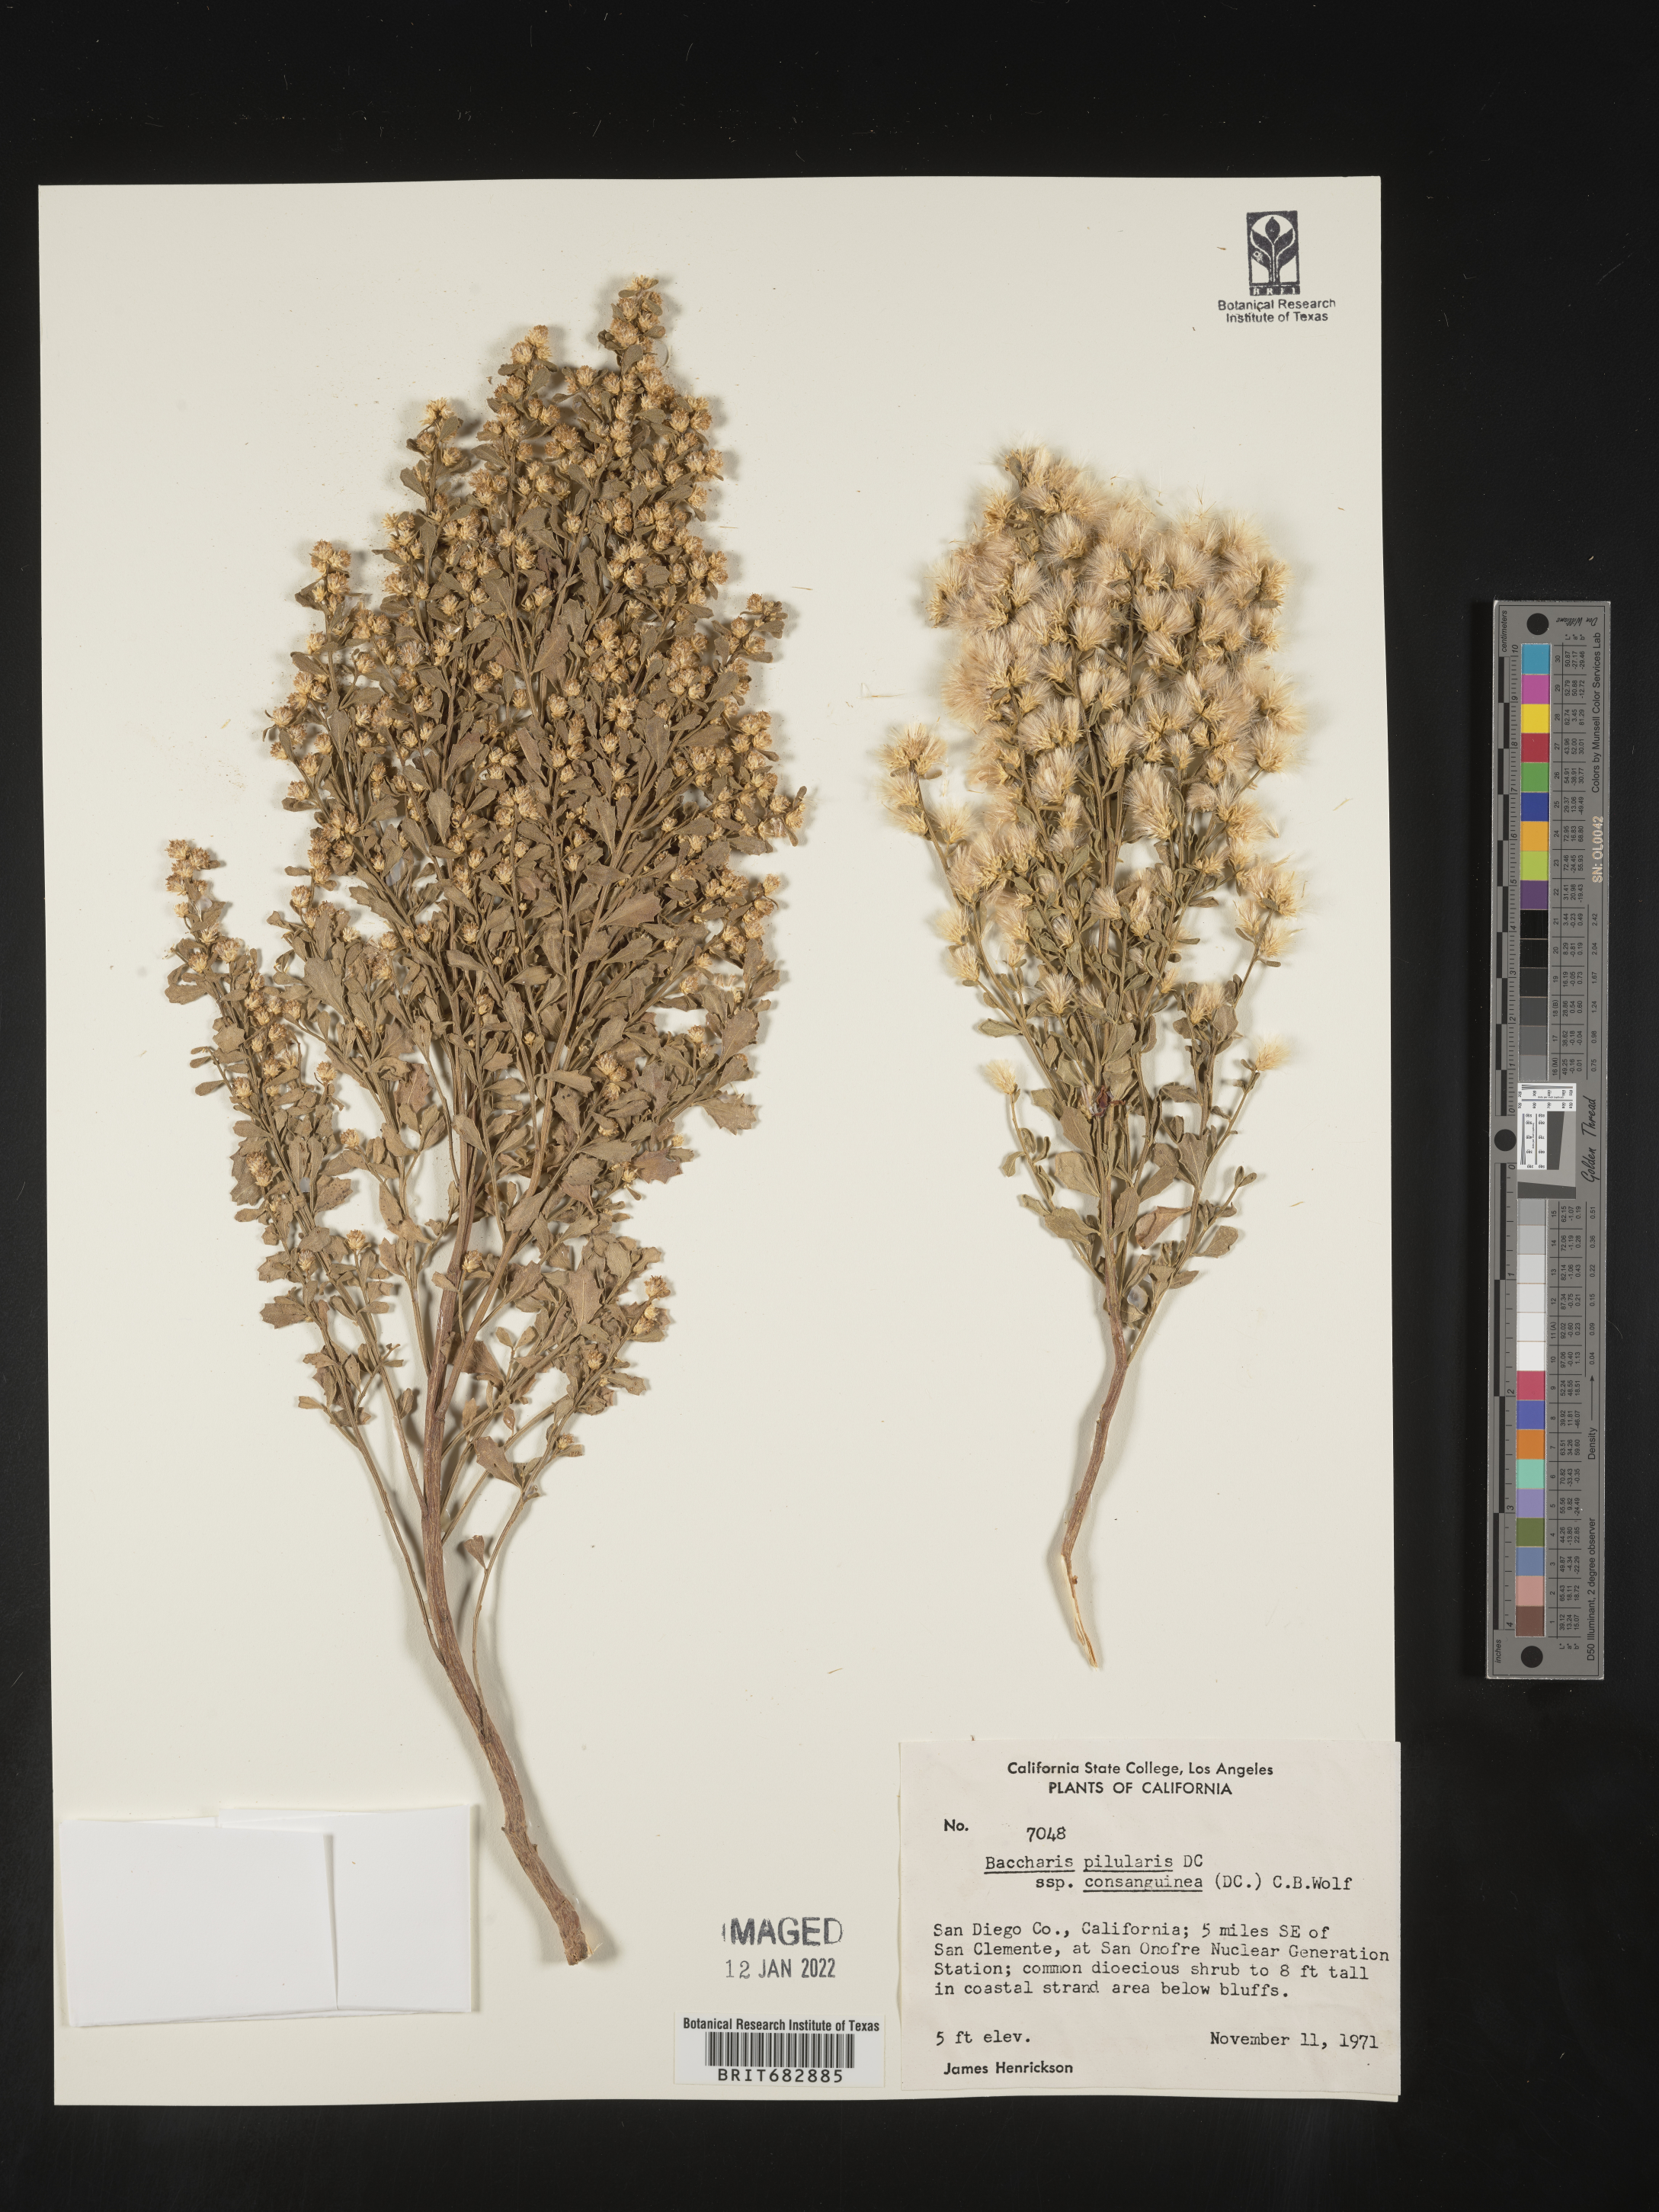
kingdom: Plantae
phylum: Tracheophyta
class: Magnoliopsida
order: Asterales
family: Asteraceae
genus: Baccharis
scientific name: Baccharis pilularis
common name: Coyotebrush
